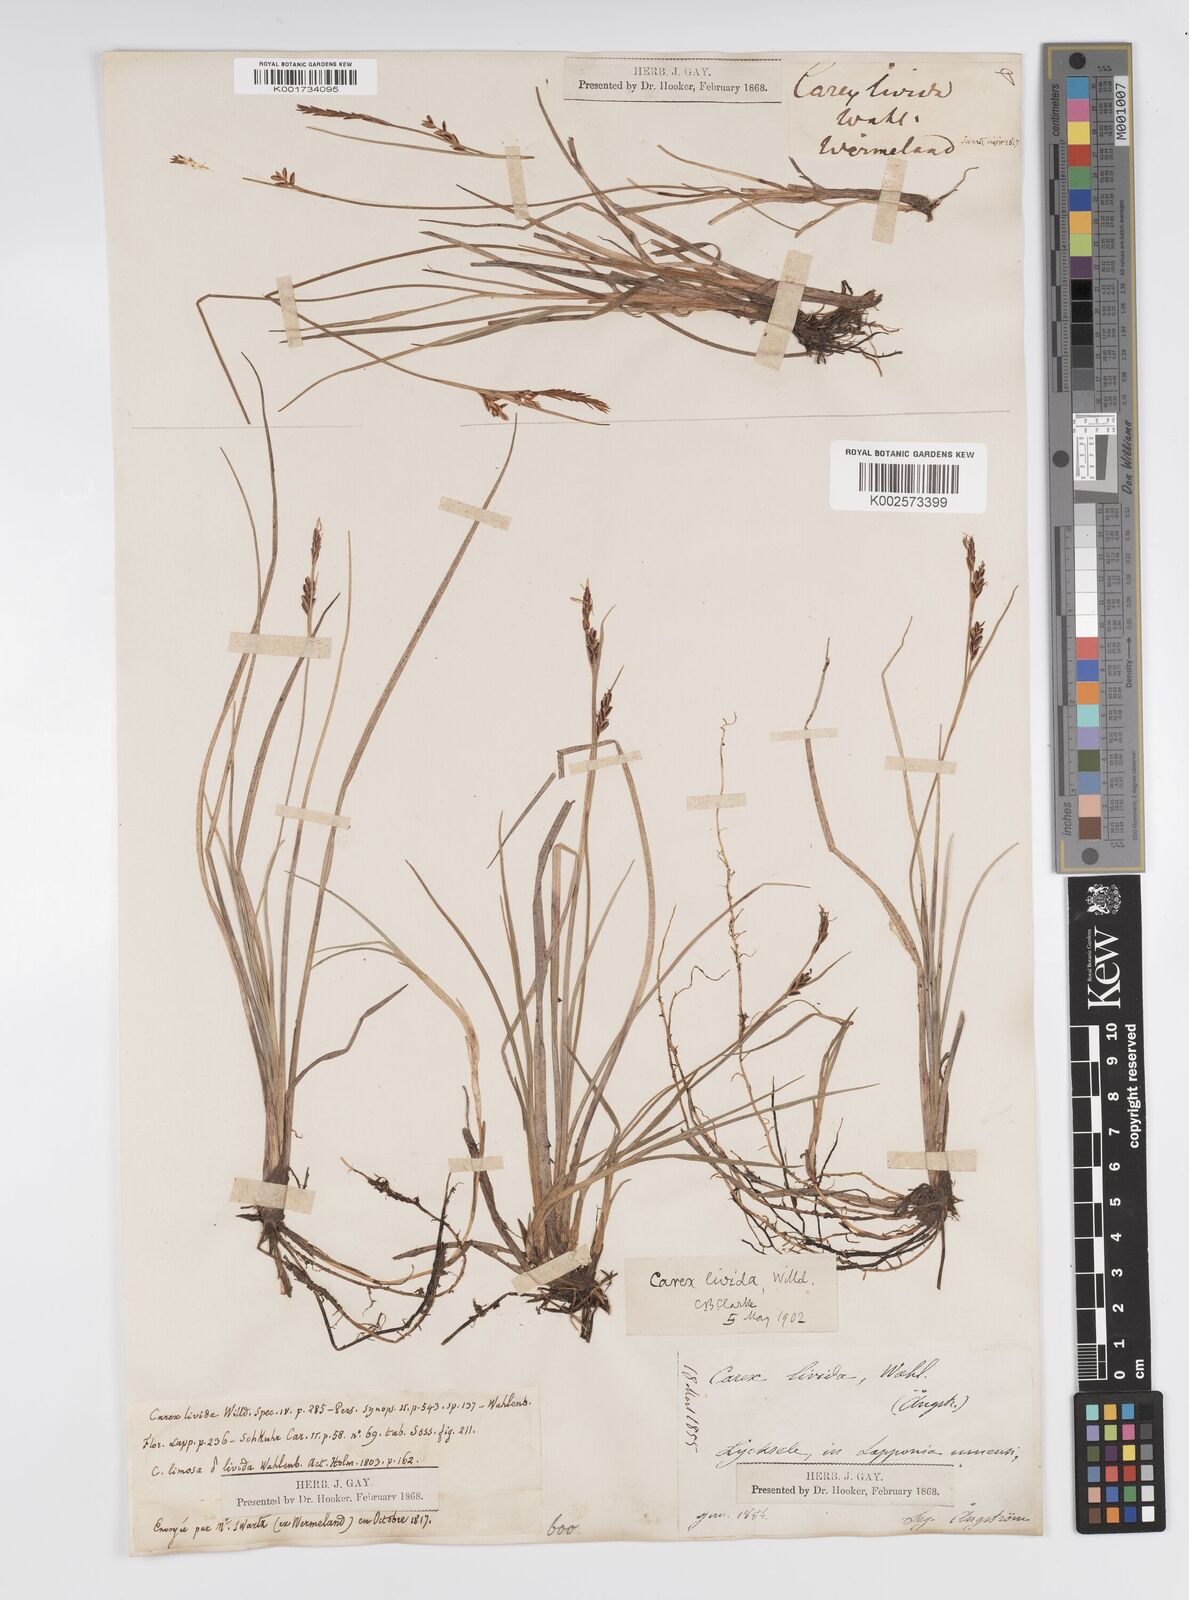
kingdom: Plantae
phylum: Tracheophyta
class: Liliopsida
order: Poales
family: Cyperaceae
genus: Carex
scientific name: Carex livida
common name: Livid sedge
